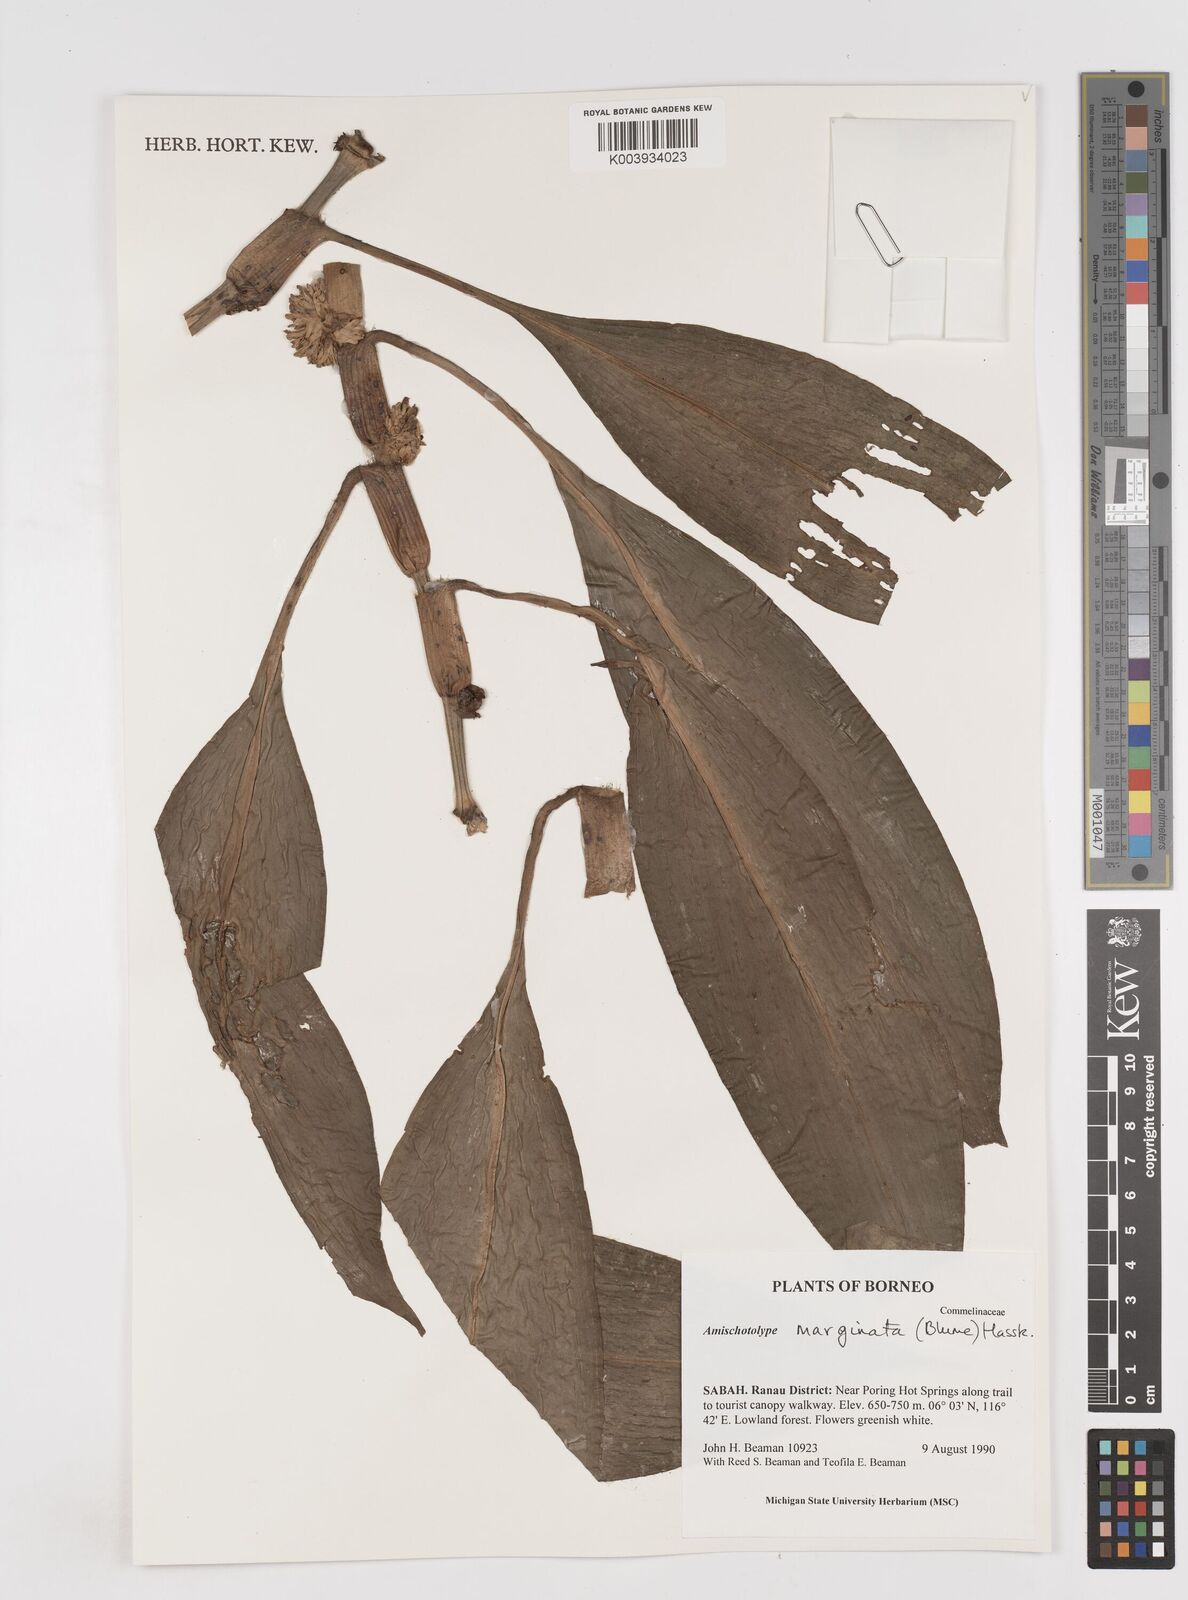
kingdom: Plantae
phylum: Tracheophyta
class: Liliopsida
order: Commelinales
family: Commelinaceae
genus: Amischotolype
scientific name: Amischotolype marginata
